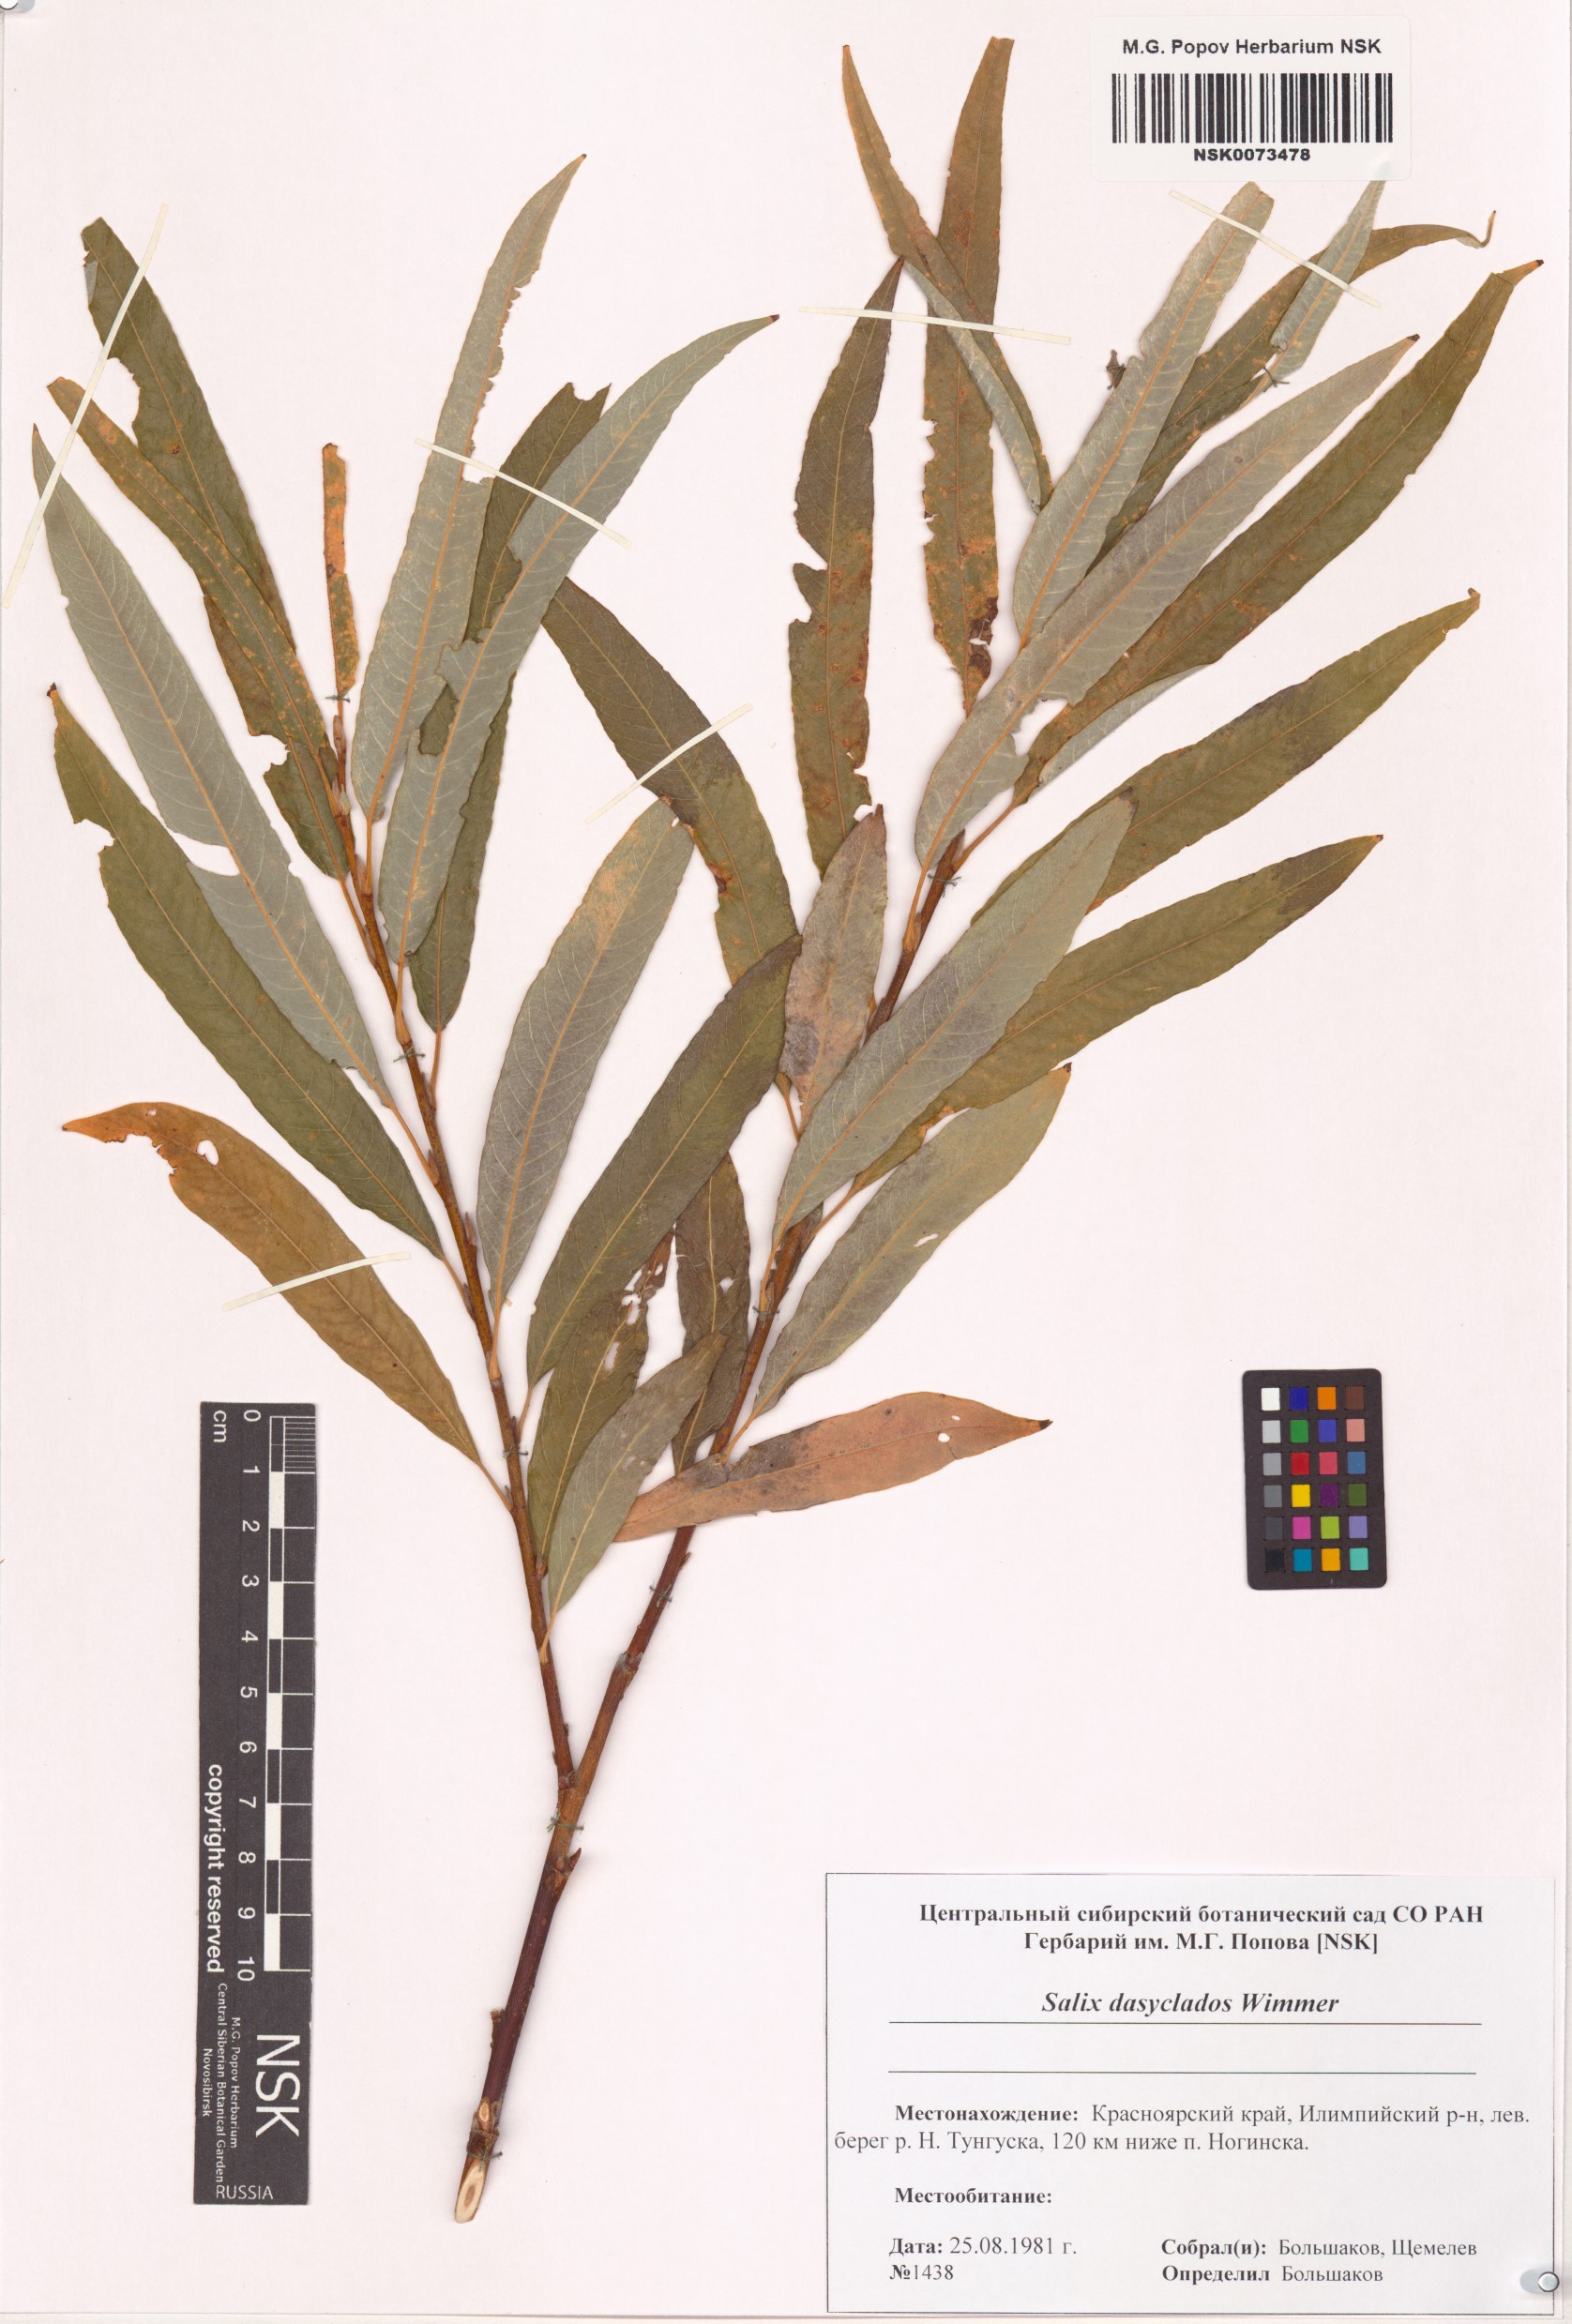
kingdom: Plantae
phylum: Tracheophyta
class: Magnoliopsida
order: Malpighiales
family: Salicaceae
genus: Salix
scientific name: Salix gmelinii
